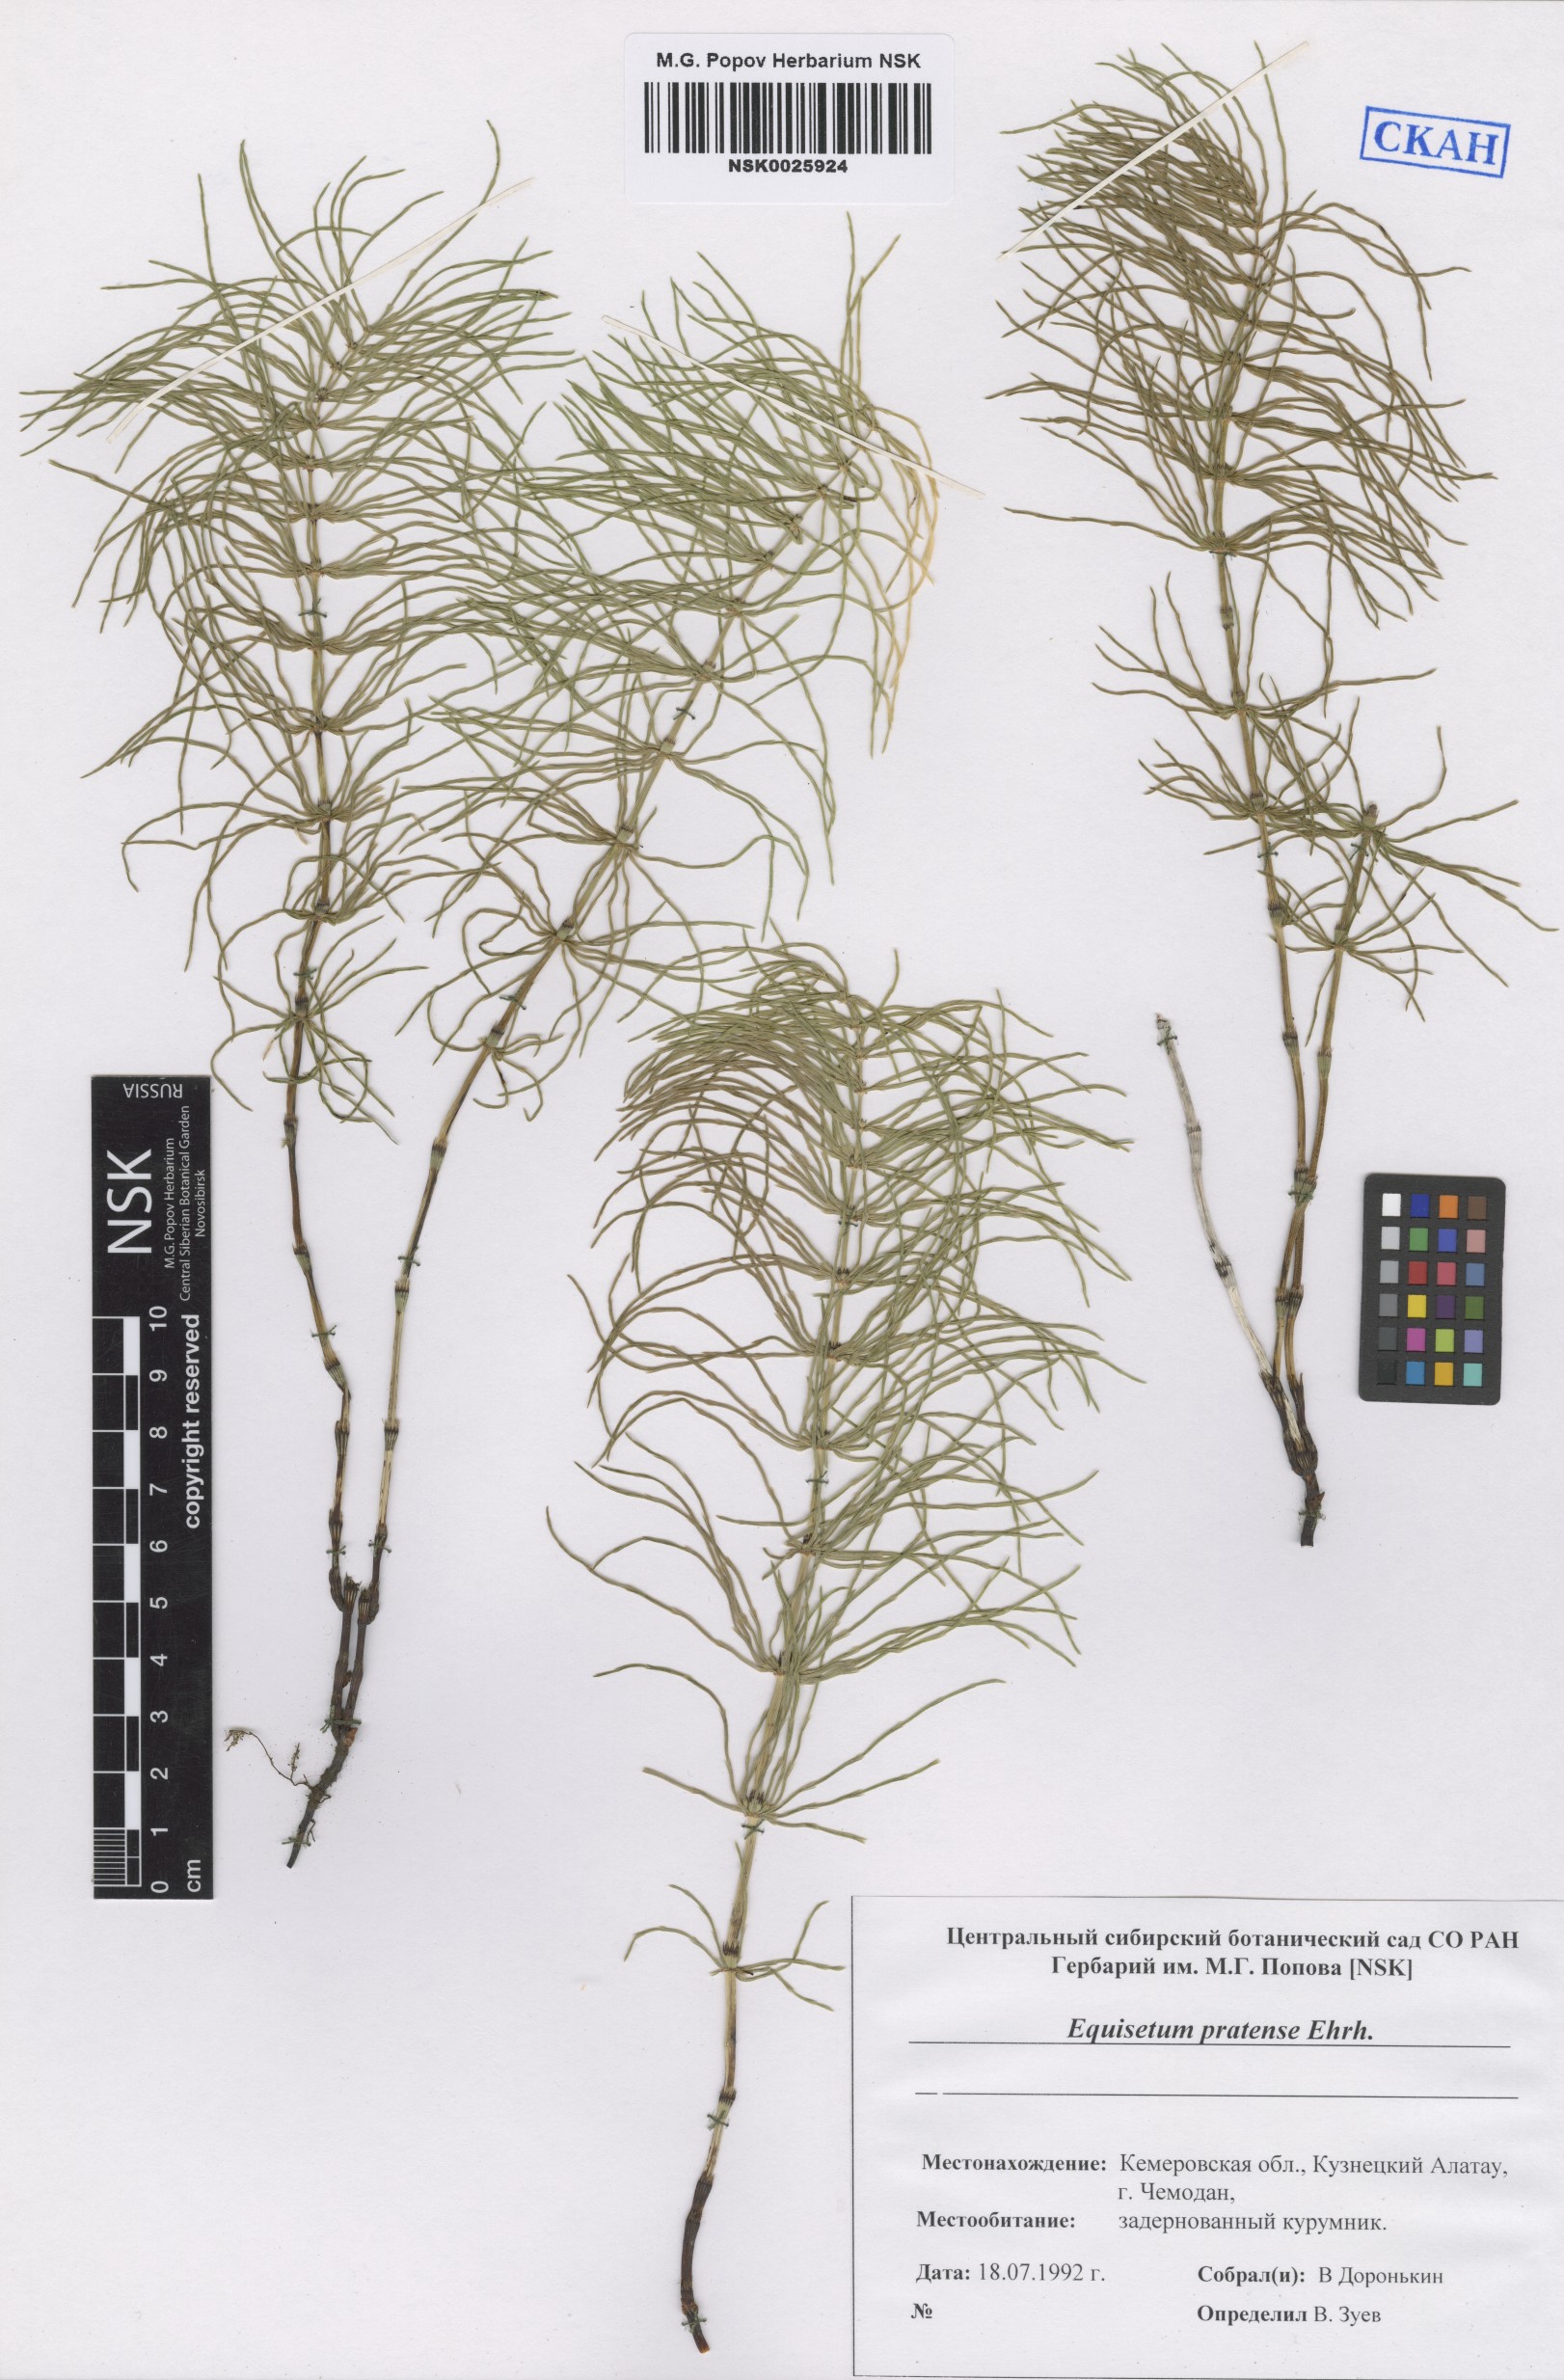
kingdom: Plantae
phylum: Tracheophyta
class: Polypodiopsida
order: Equisetales
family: Equisetaceae
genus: Equisetum
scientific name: Equisetum pratense
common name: Meadow horsetail
